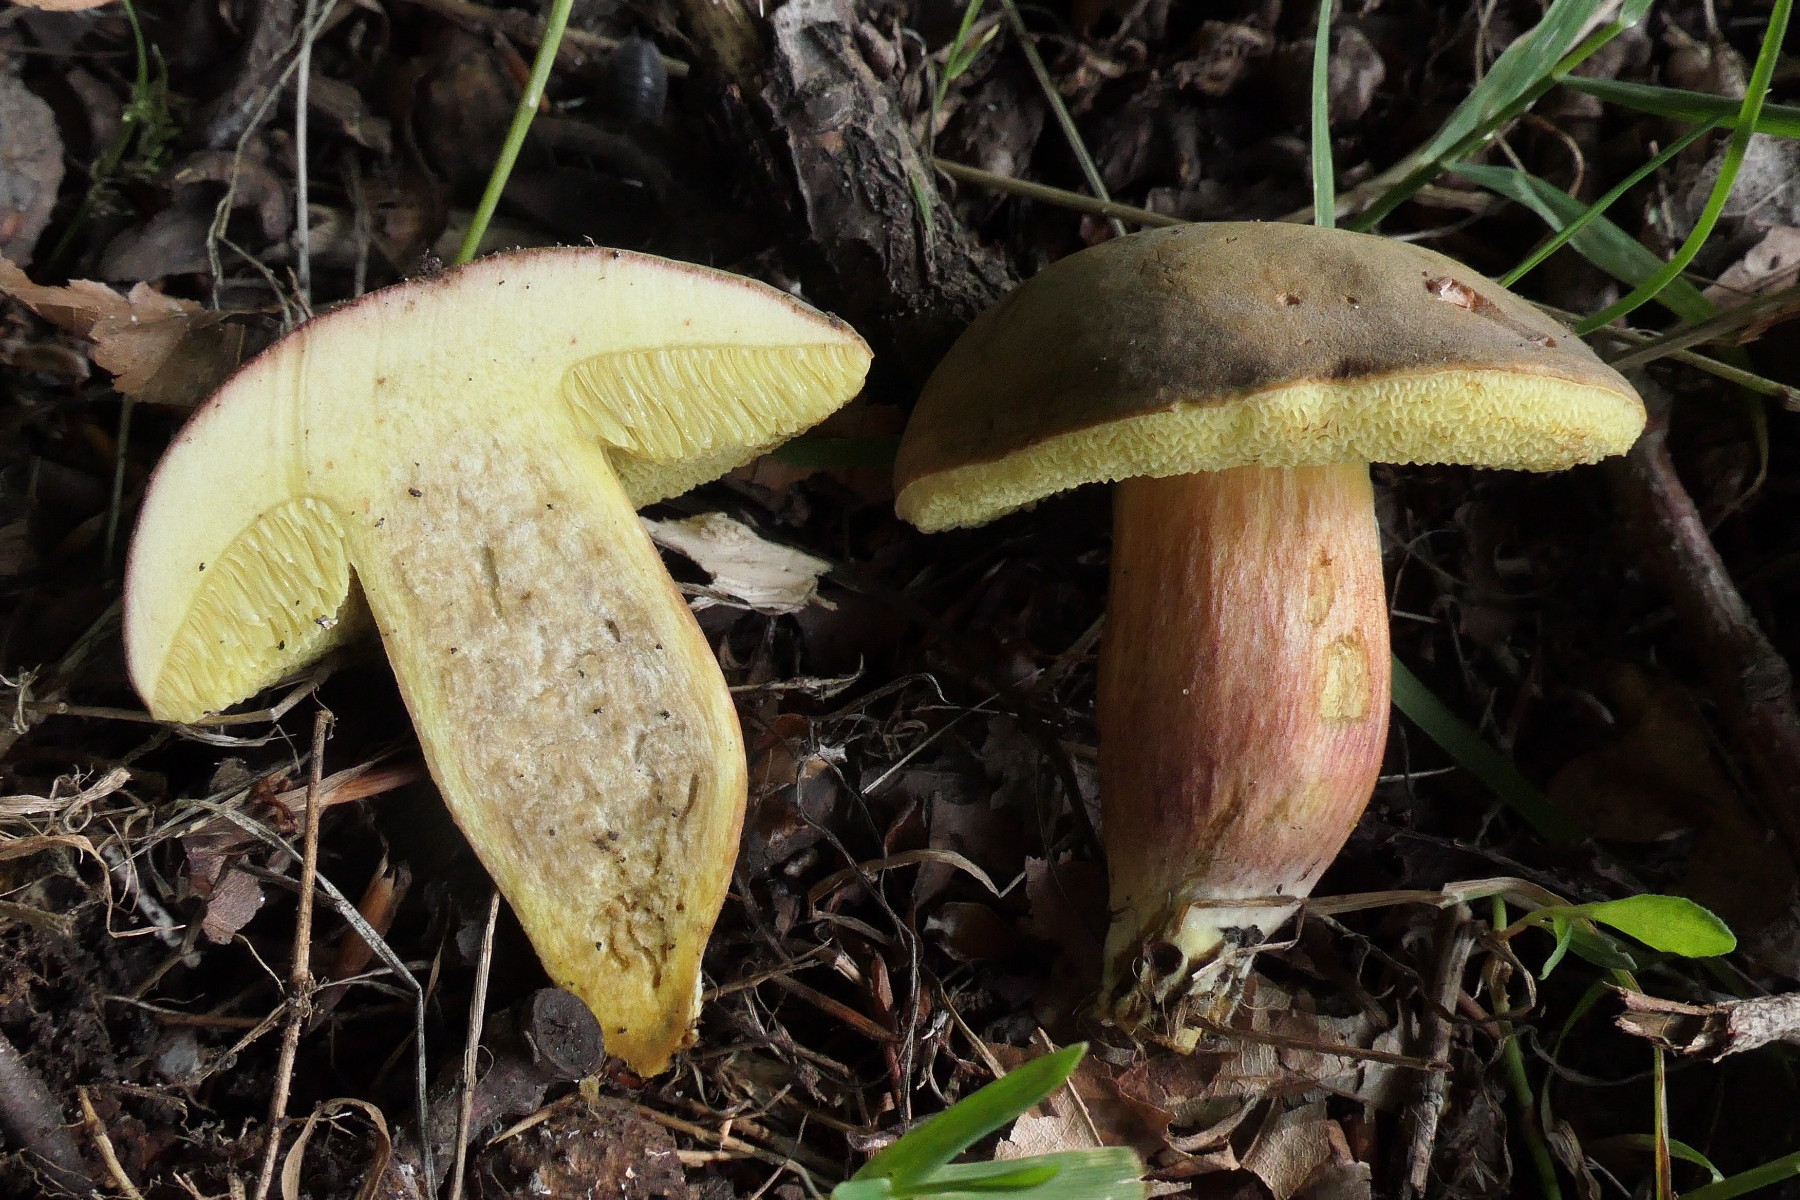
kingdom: Fungi
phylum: Basidiomycota
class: Agaricomycetes
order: Boletales
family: Boletaceae
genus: Xerocomellus
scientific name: Xerocomellus chrysenteron
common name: rødsprukken rørhat
